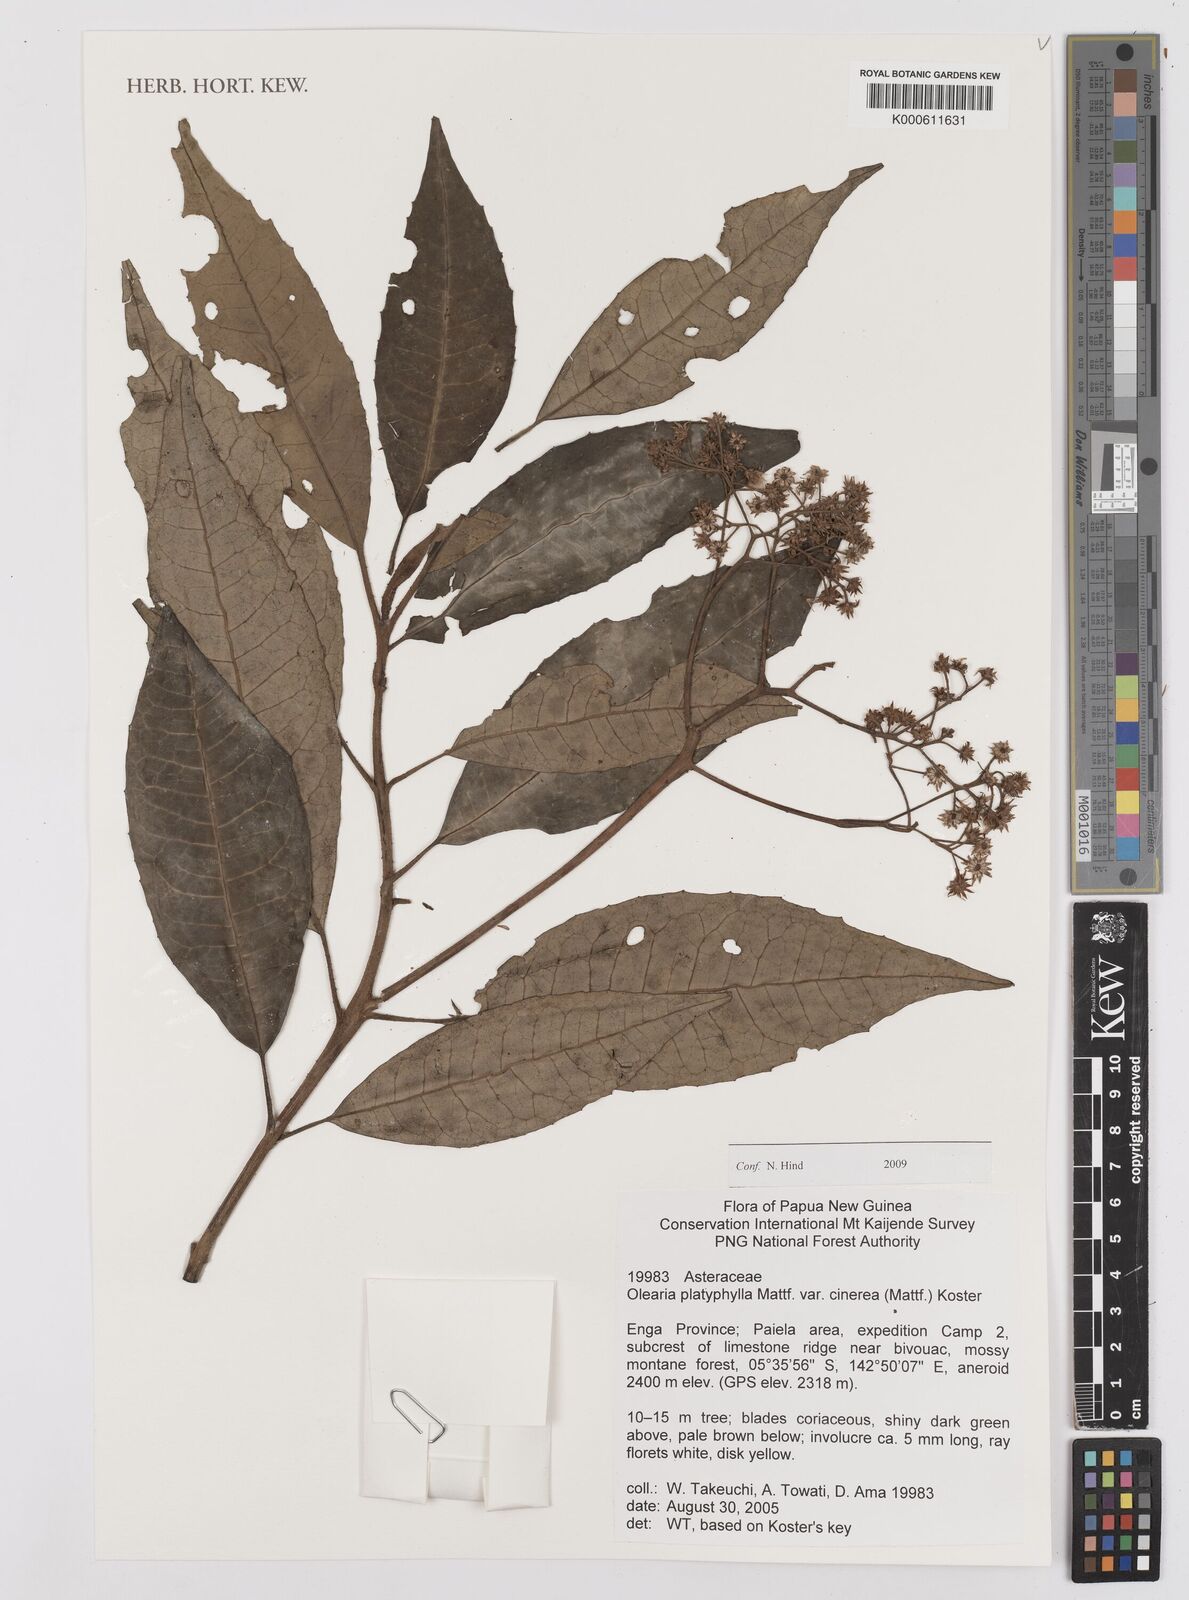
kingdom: Plantae
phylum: Tracheophyta
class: Magnoliopsida
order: Asterales
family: Asteraceae
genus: Olearia
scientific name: Olearia platyphylla
